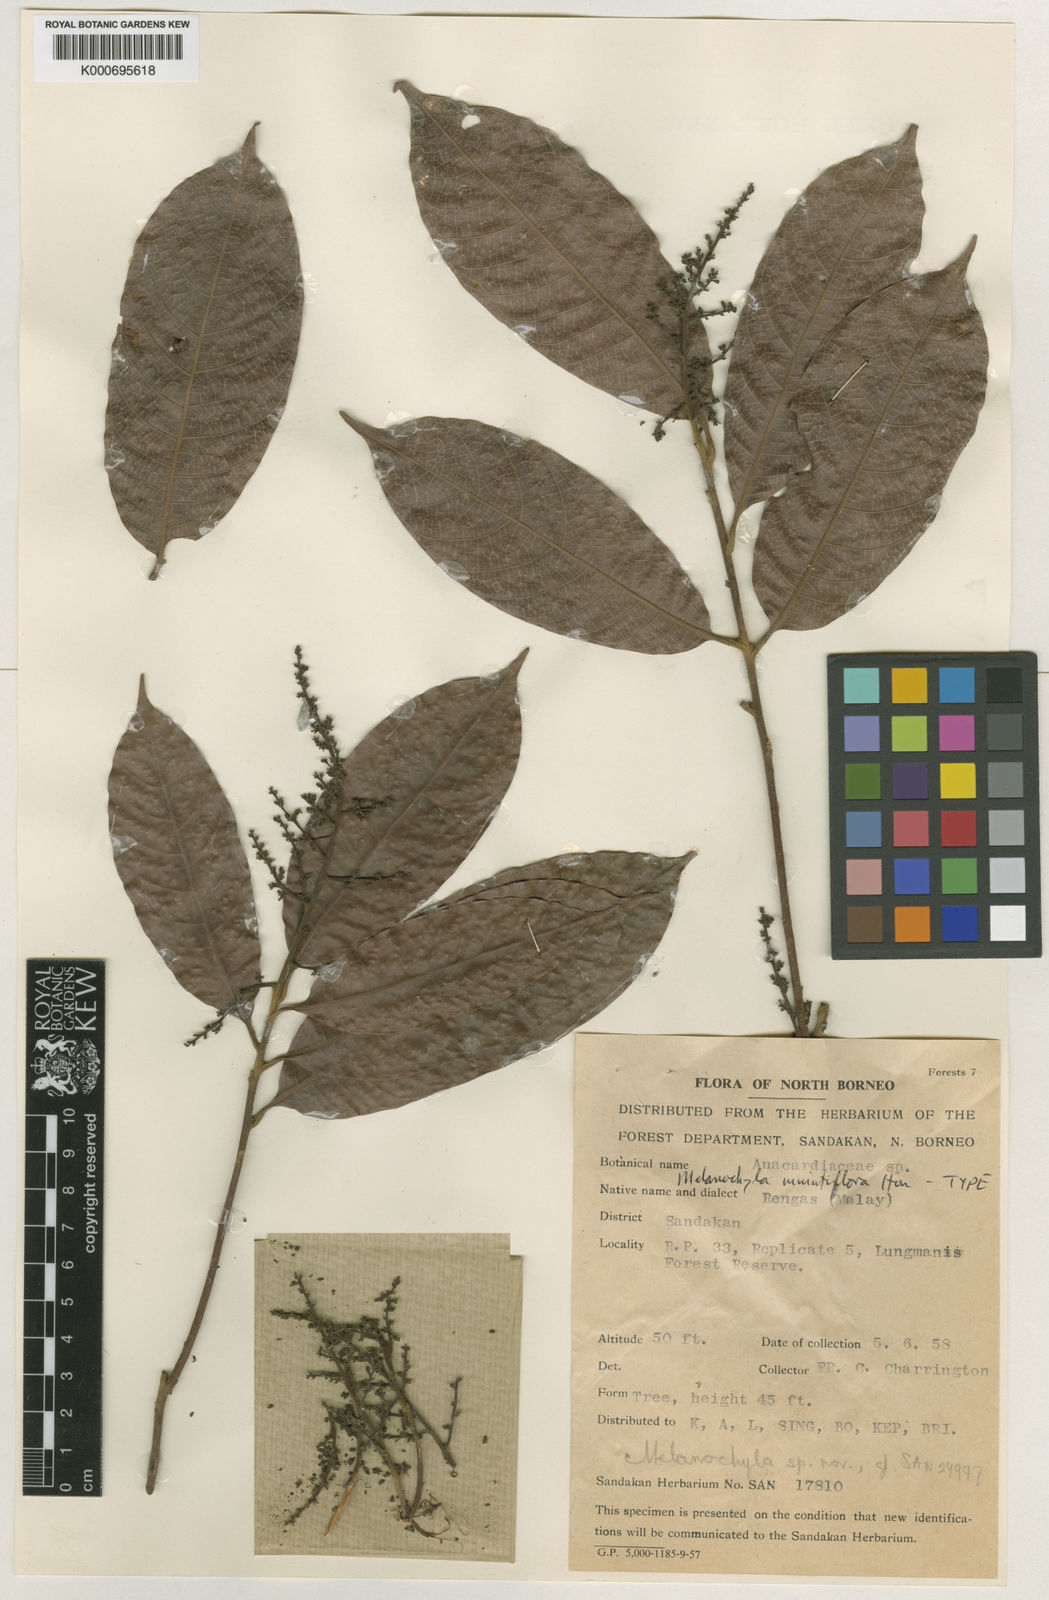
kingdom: Plantae
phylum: Tracheophyta
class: Magnoliopsida
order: Sapindales
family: Anacardiaceae
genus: Melanochyla
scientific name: Melanochyla minutiflora
